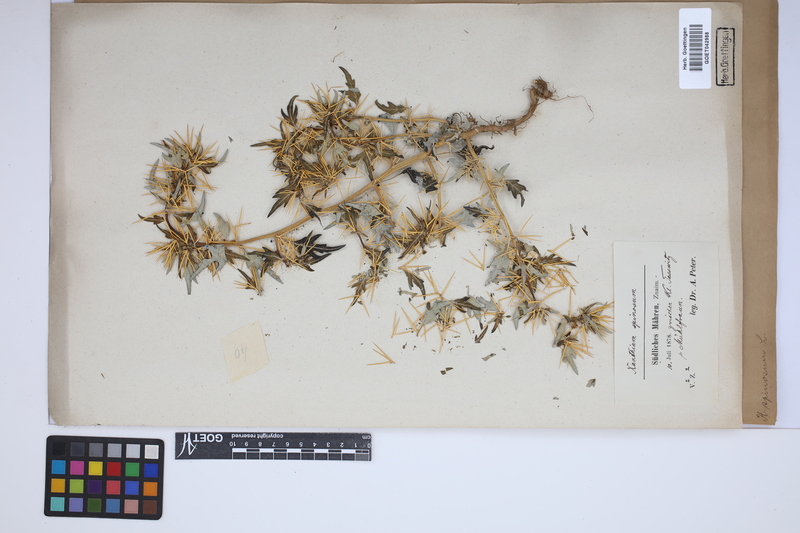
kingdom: Plantae
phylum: Tracheophyta
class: Magnoliopsida
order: Asterales
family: Asteraceae
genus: Xanthium
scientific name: Xanthium spinosum
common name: Spiny cocklebur
